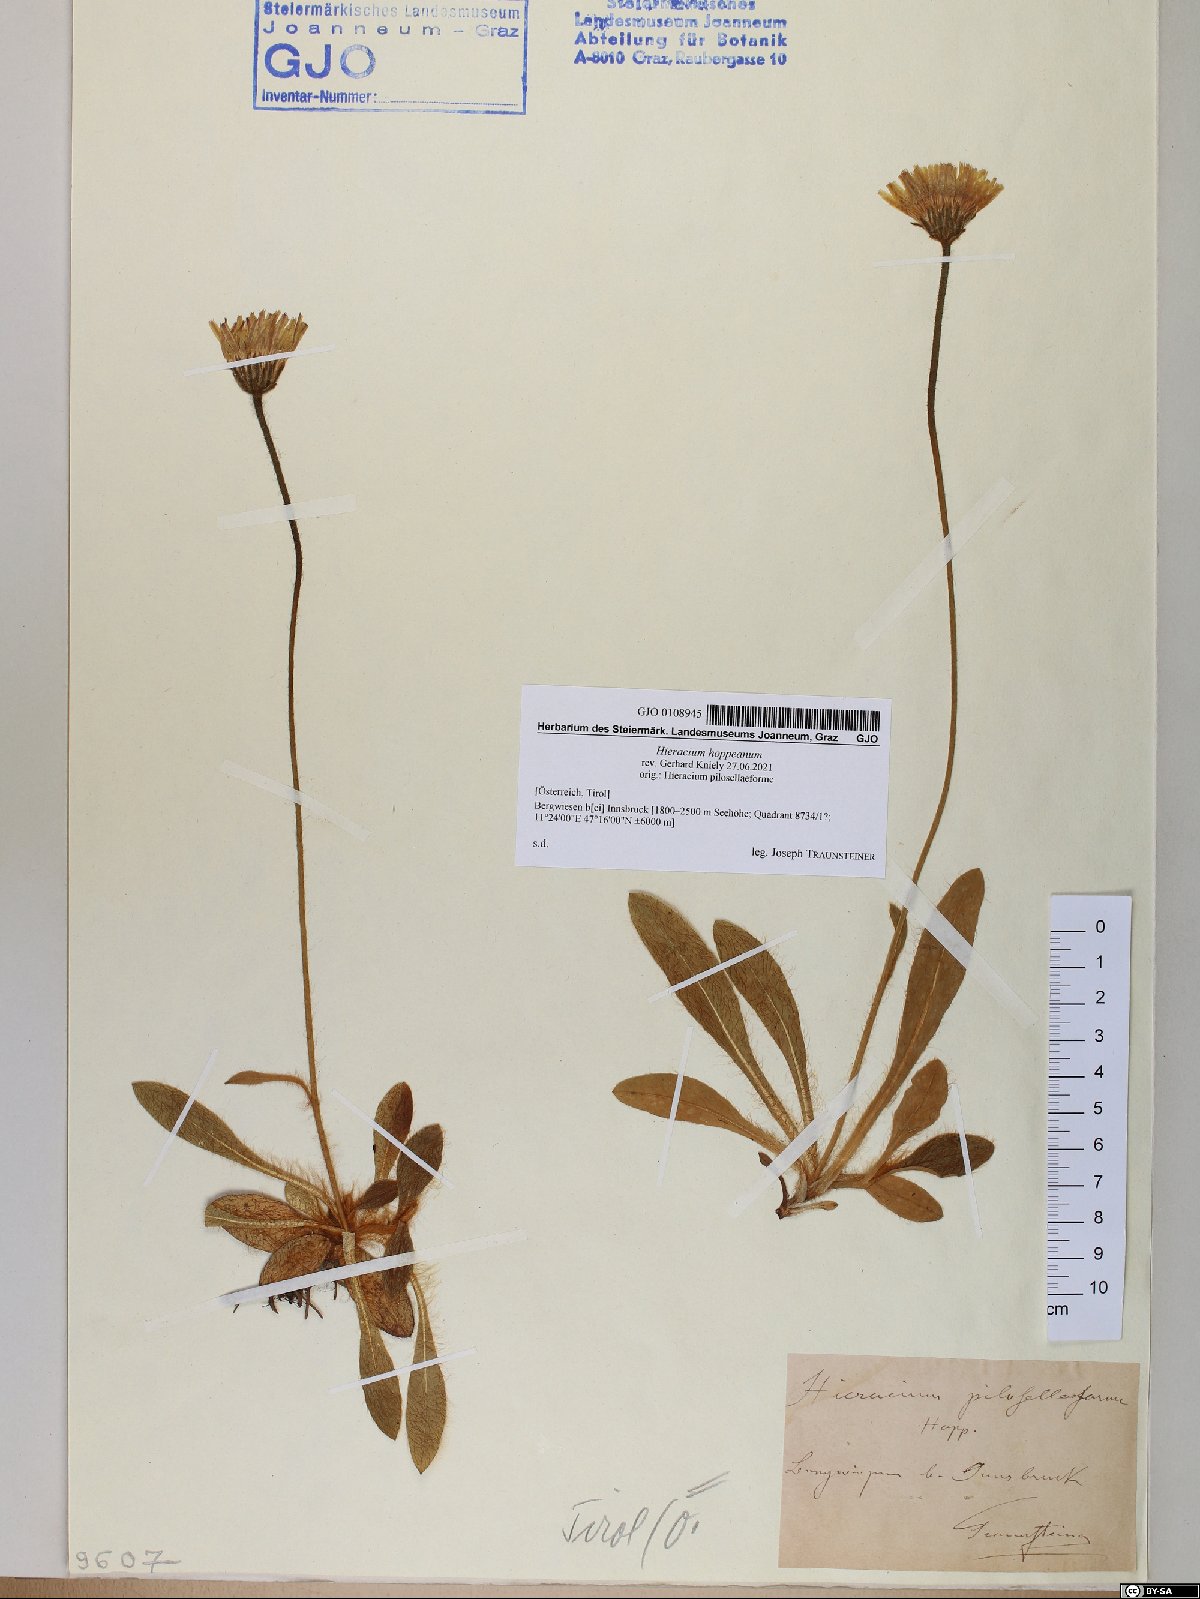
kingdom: Plantae
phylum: Tracheophyta
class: Magnoliopsida
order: Asterales
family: Asteraceae
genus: Pilosella
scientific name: Pilosella hoppeana
